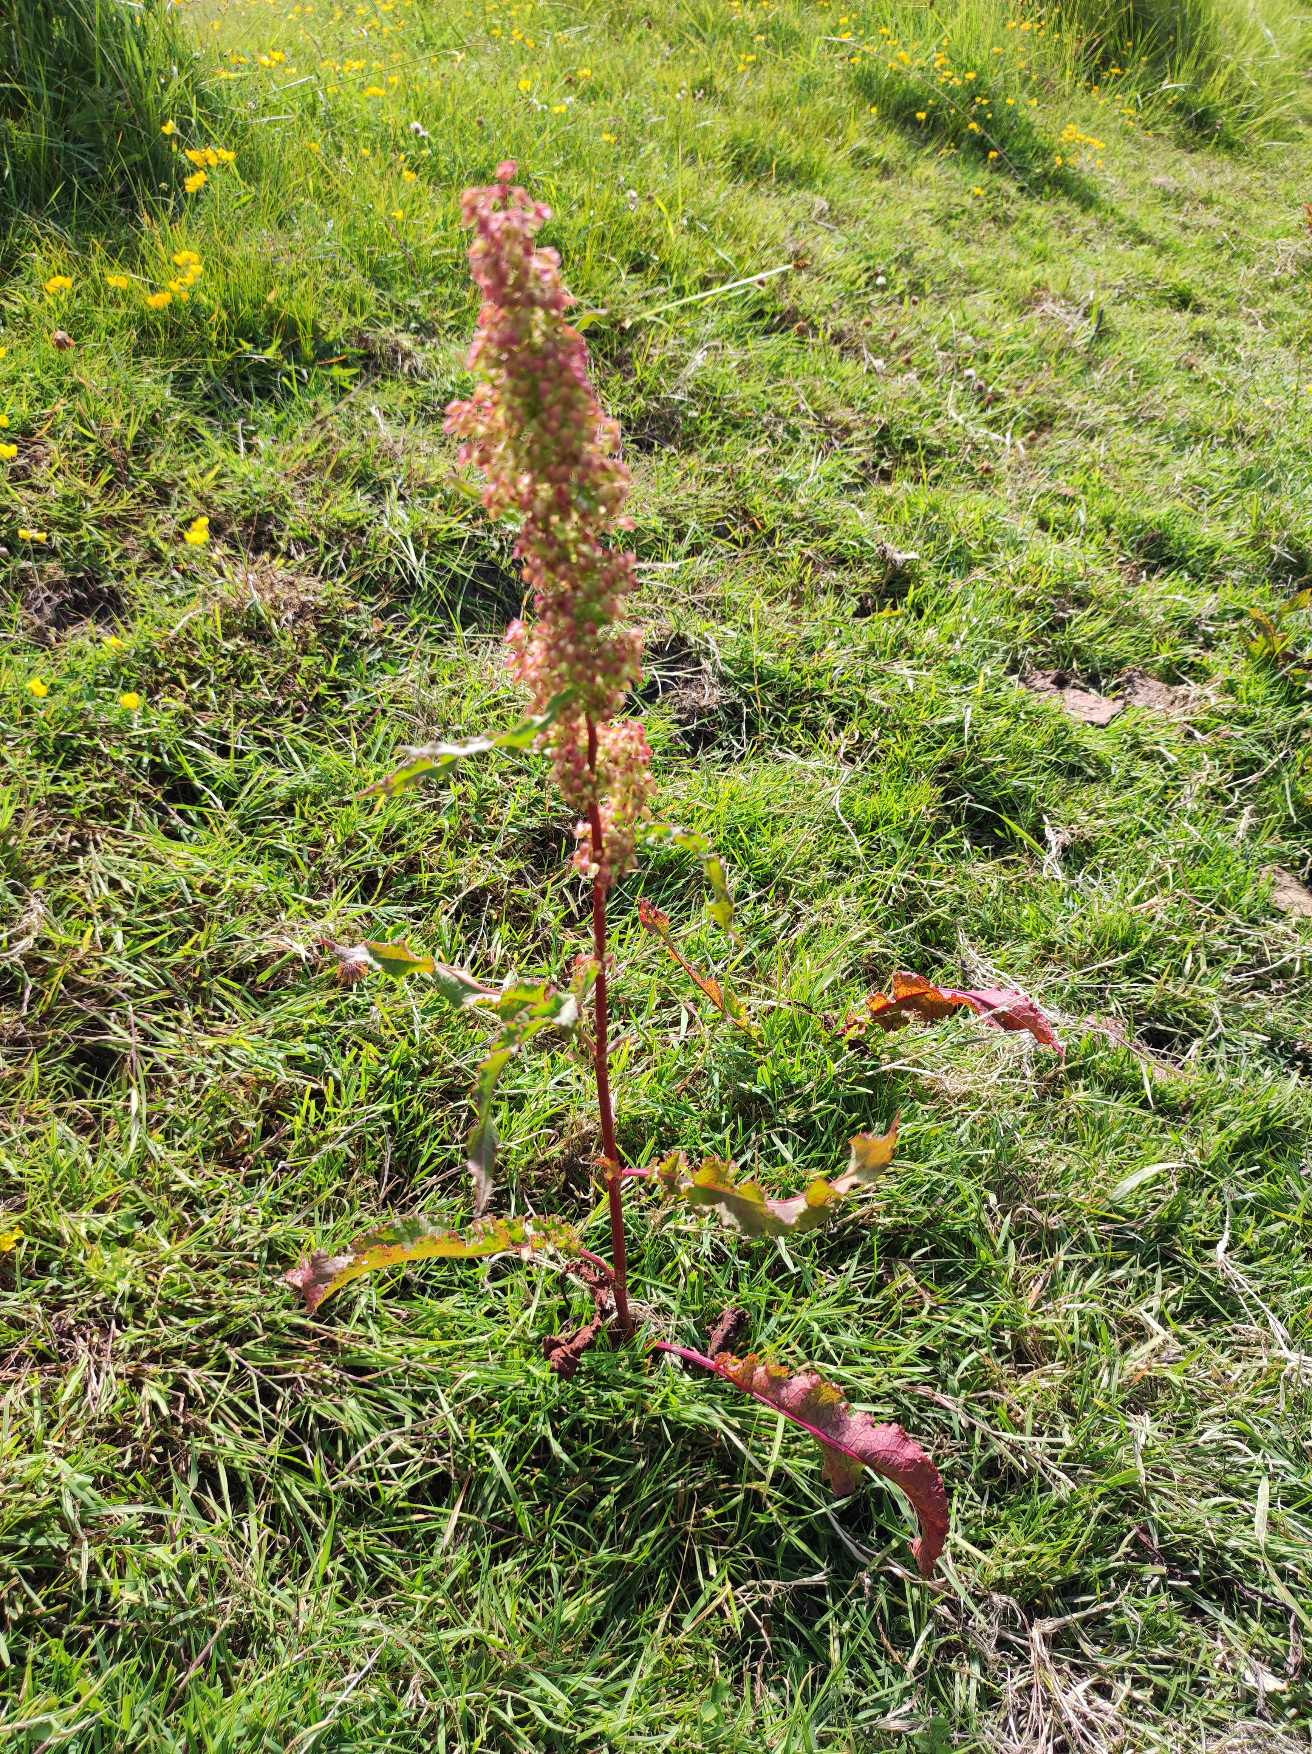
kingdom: Plantae
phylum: Tracheophyta
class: Magnoliopsida
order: Caryophyllales
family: Polygonaceae
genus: Rumex
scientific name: Rumex crispus
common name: Kruset skræppe
